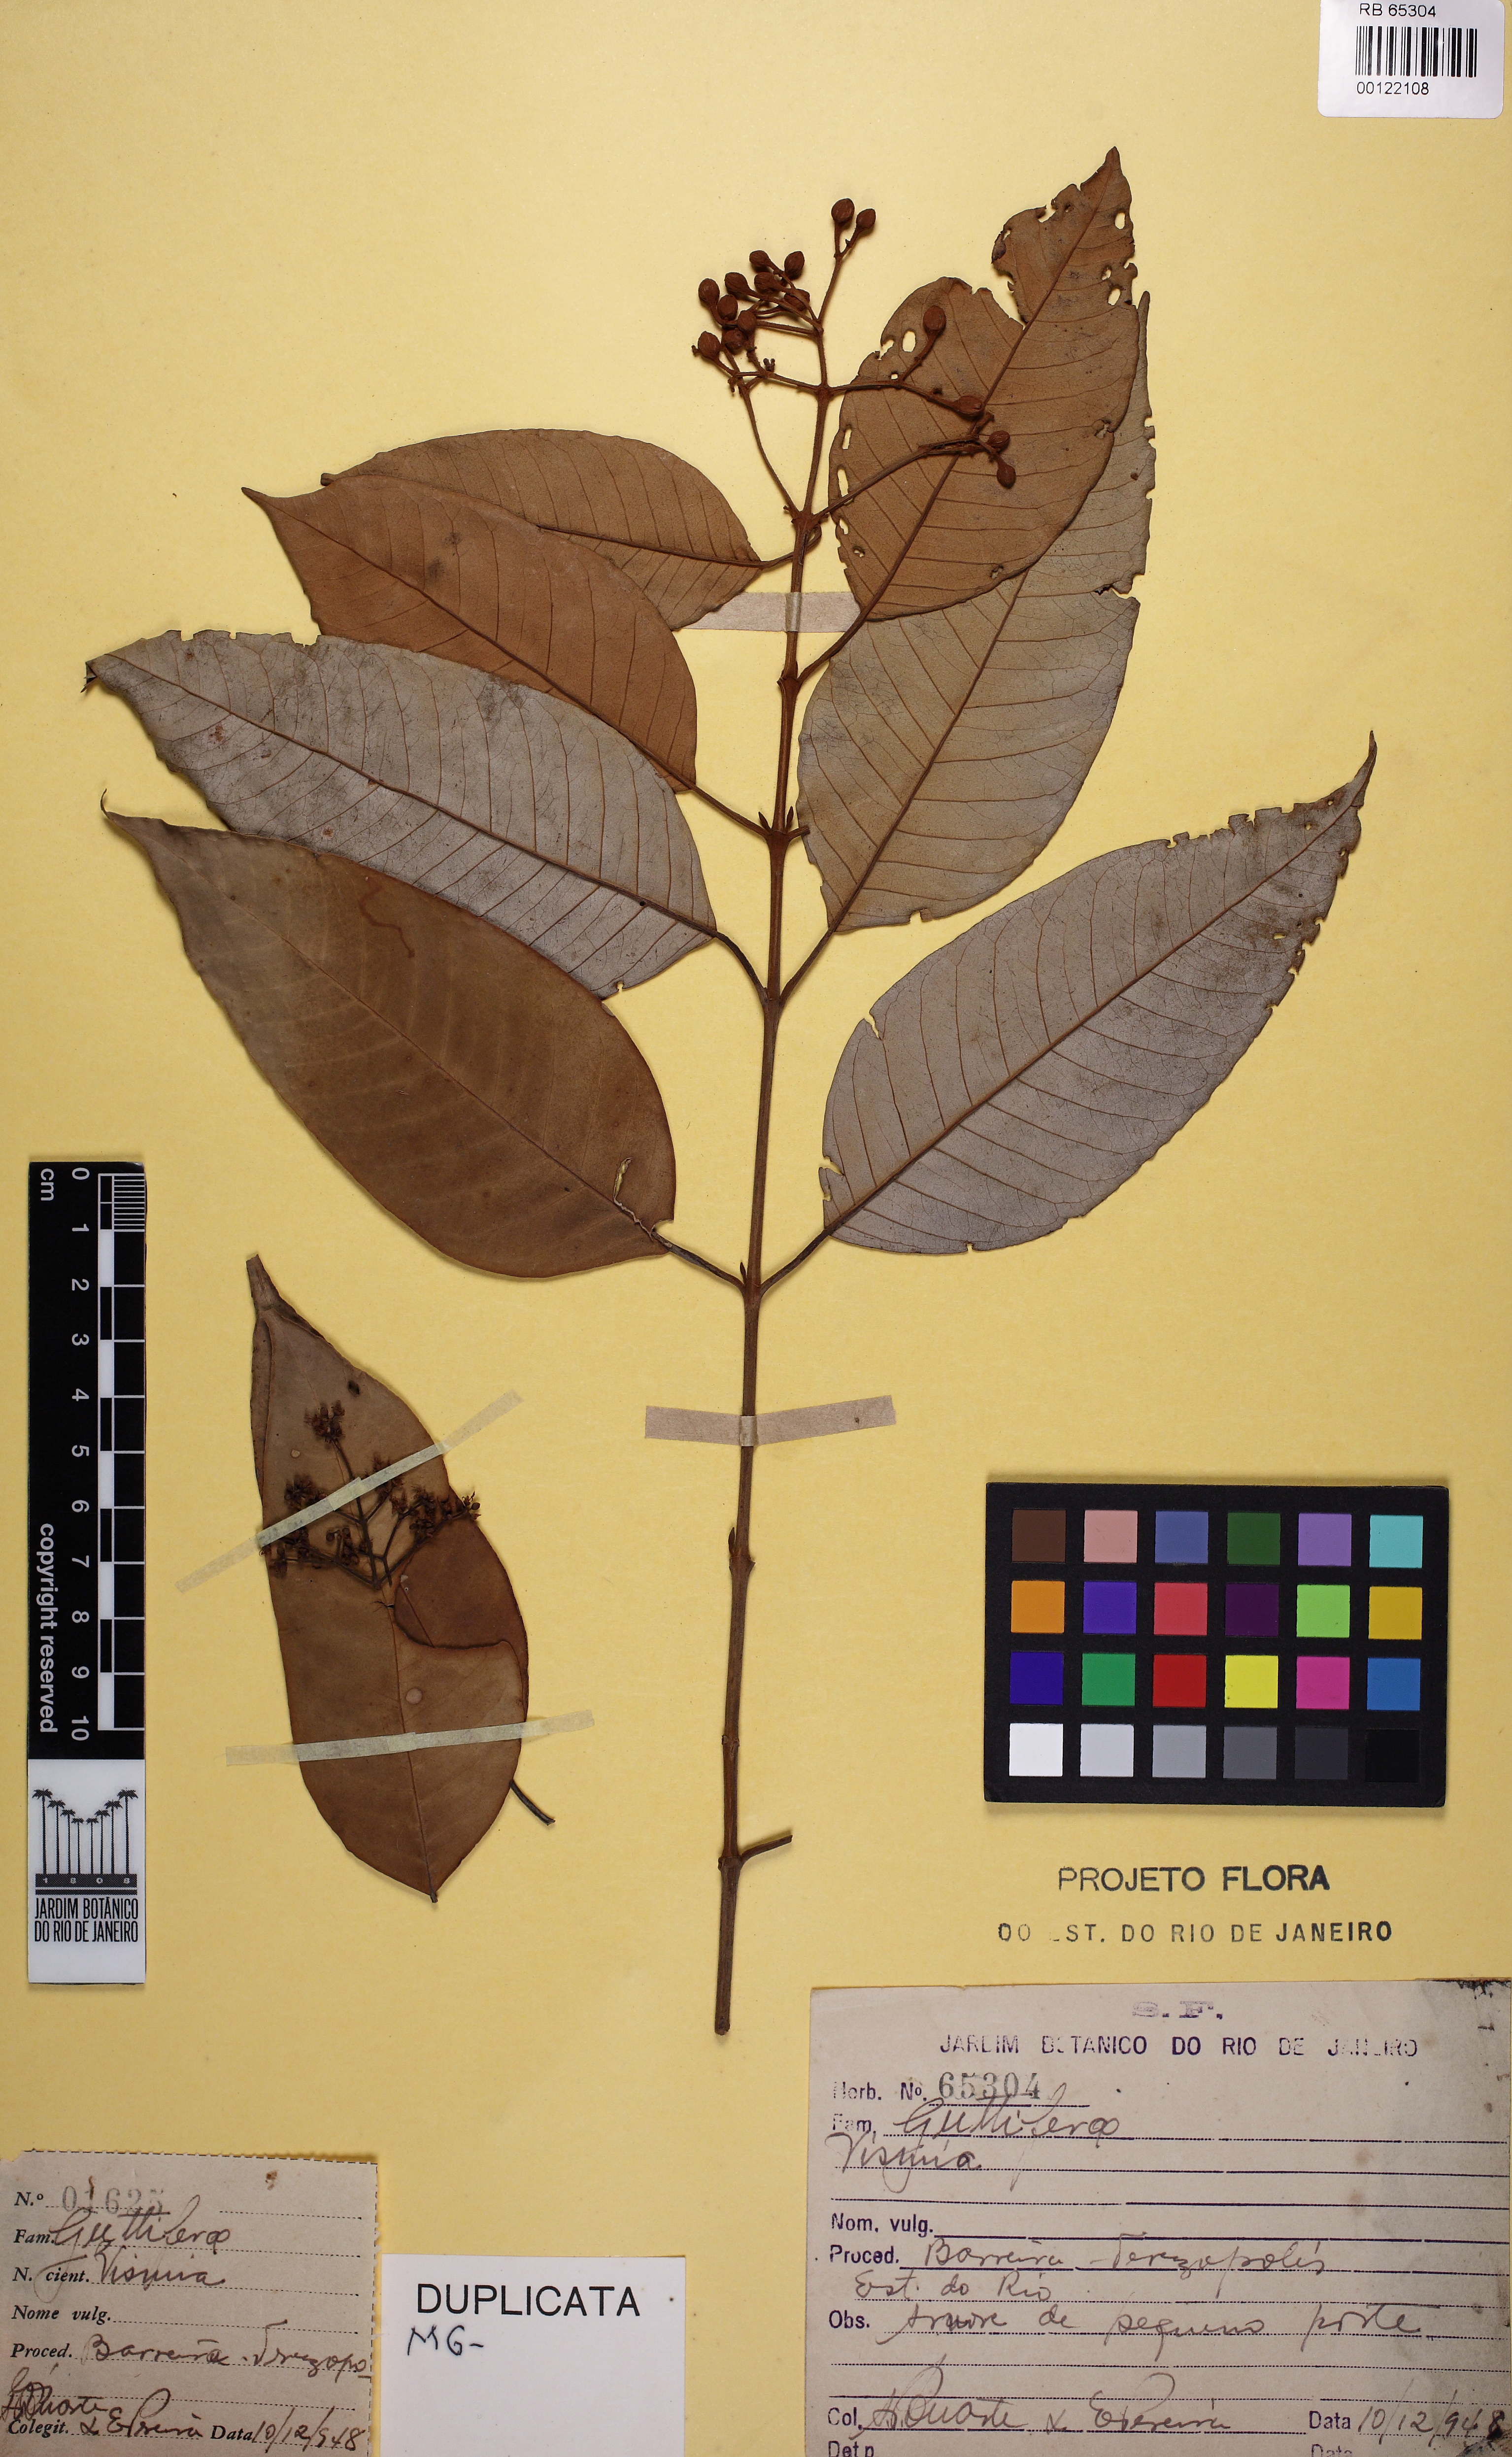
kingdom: Plantae
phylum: Tracheophyta
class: Magnoliopsida
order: Malpighiales
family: Hypericaceae
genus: Vismia
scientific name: Vismia magnoliifolia
